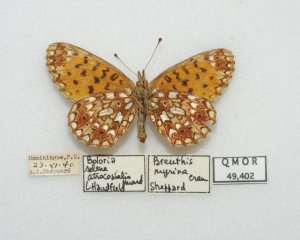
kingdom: Animalia
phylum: Arthropoda
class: Insecta
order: Lepidoptera
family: Nymphalidae
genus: Boloria
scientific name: Boloria selene
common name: Silver-bordered Fritillary
